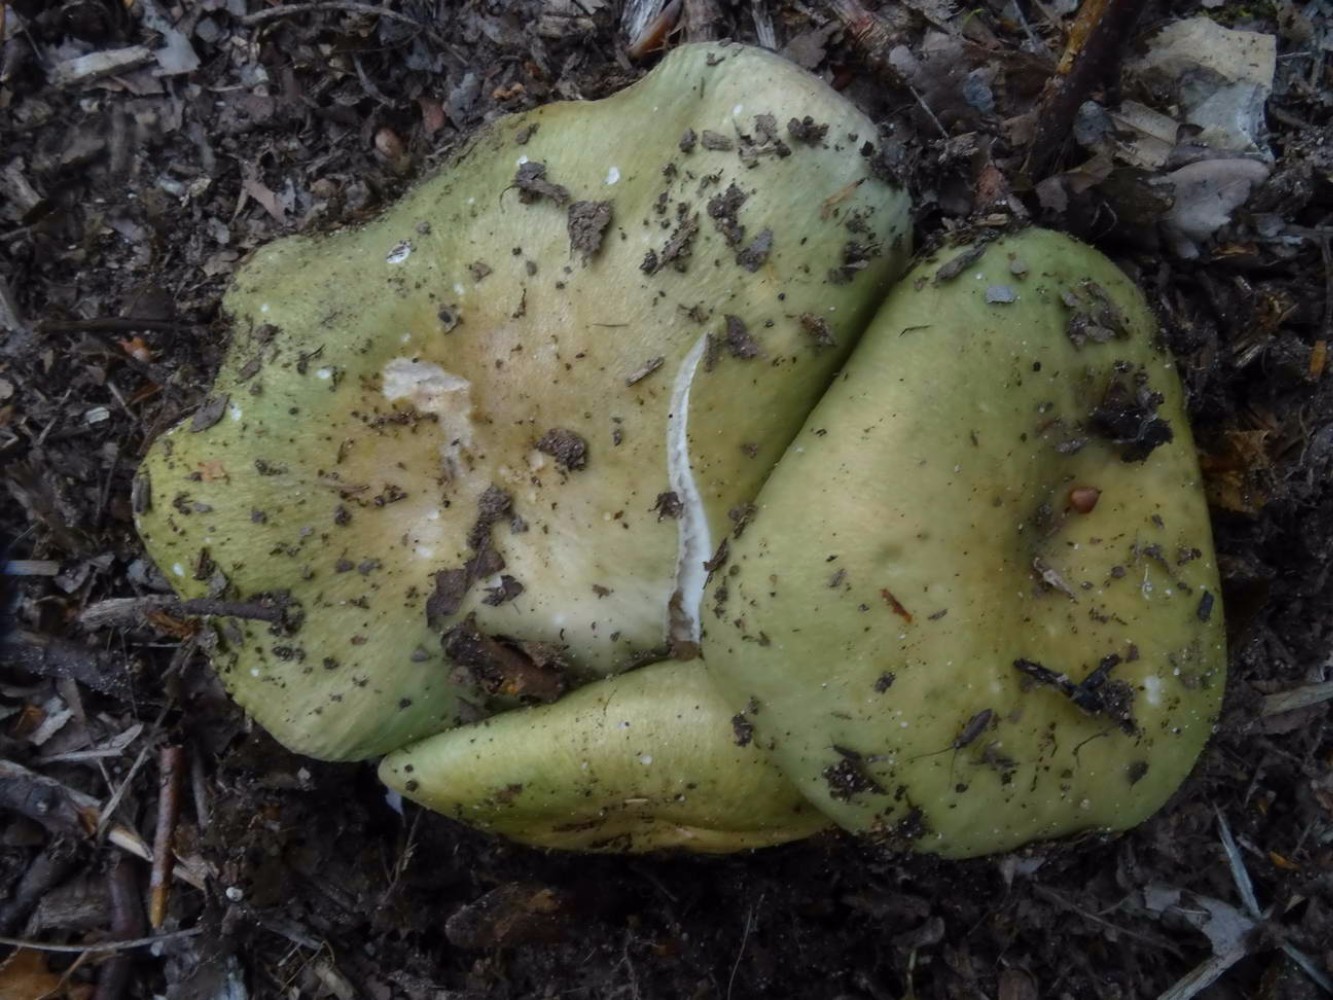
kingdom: Fungi
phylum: Basidiomycota
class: Agaricomycetes
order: Russulales
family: Russulaceae
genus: Russula
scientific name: Russula heterophylla
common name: gaffelbladet skørhat
